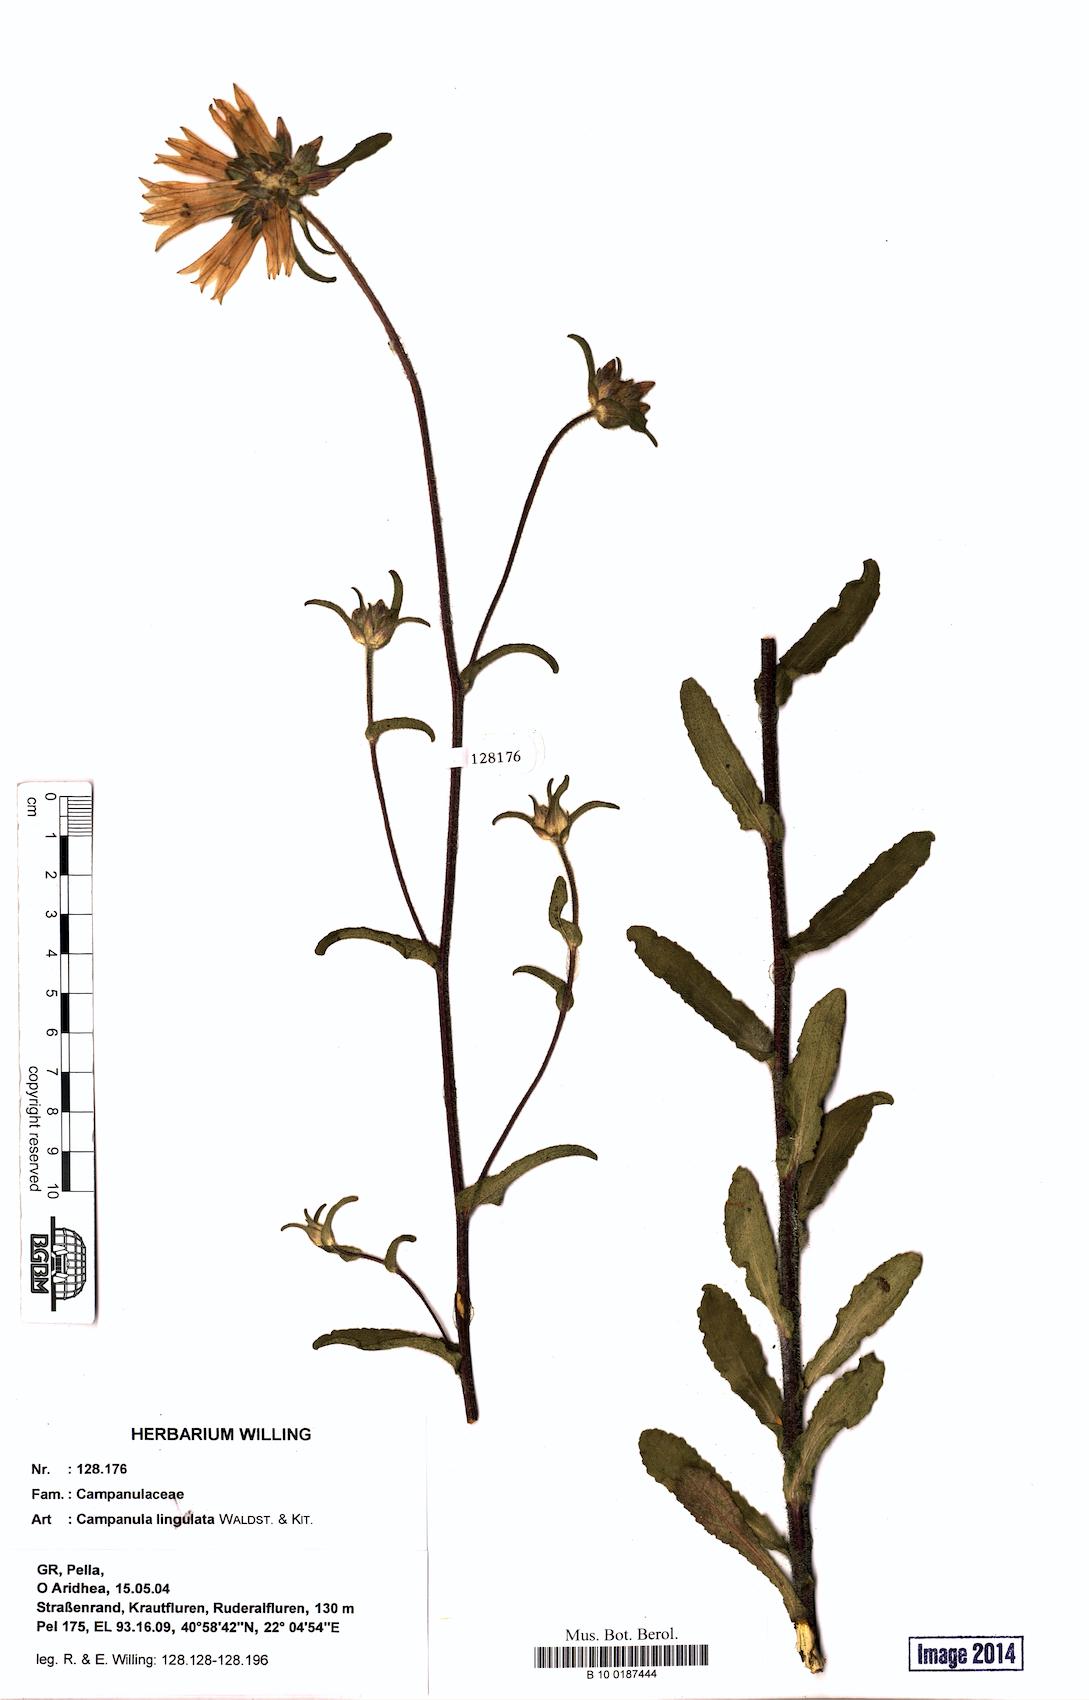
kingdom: Plantae
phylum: Tracheophyta
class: Magnoliopsida
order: Asterales
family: Campanulaceae
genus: Campanula
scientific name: Campanula lingulata
